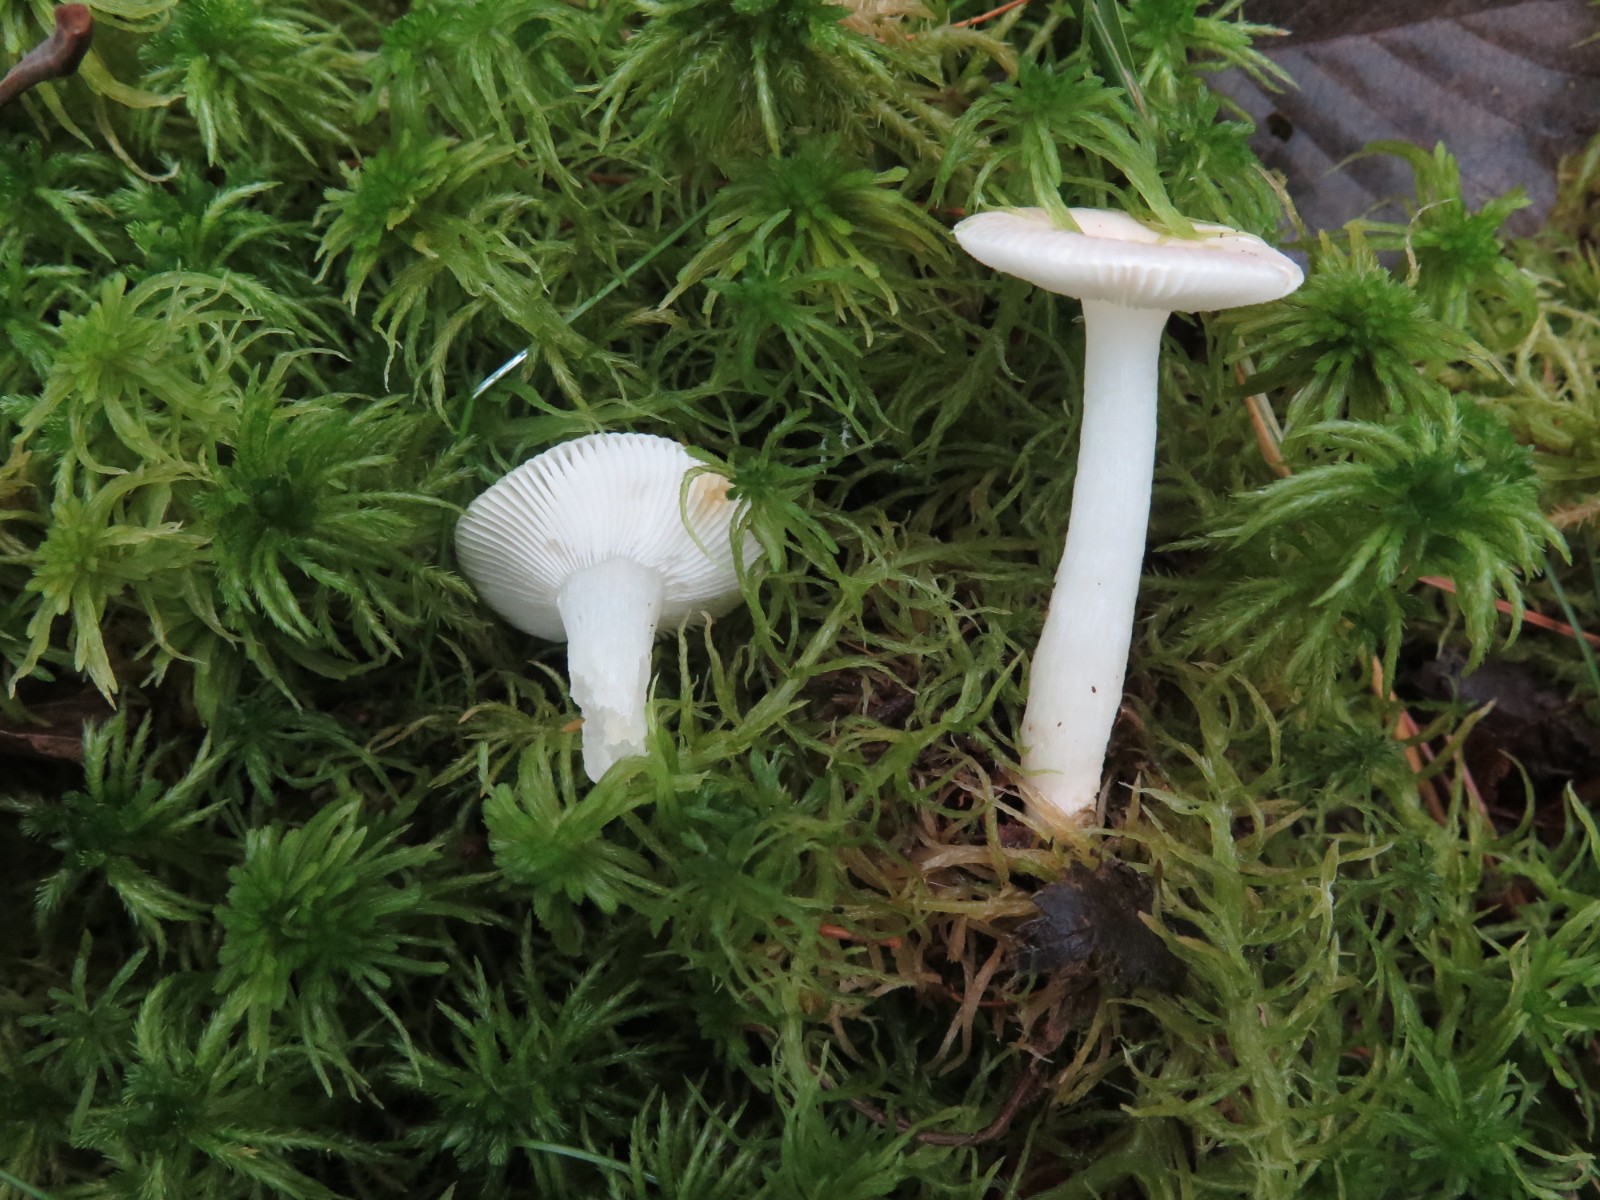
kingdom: Fungi
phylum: Basidiomycota
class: Agaricomycetes
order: Russulales
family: Russulaceae
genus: Russula
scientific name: Russula betularum
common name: bleg gift-skørhat
